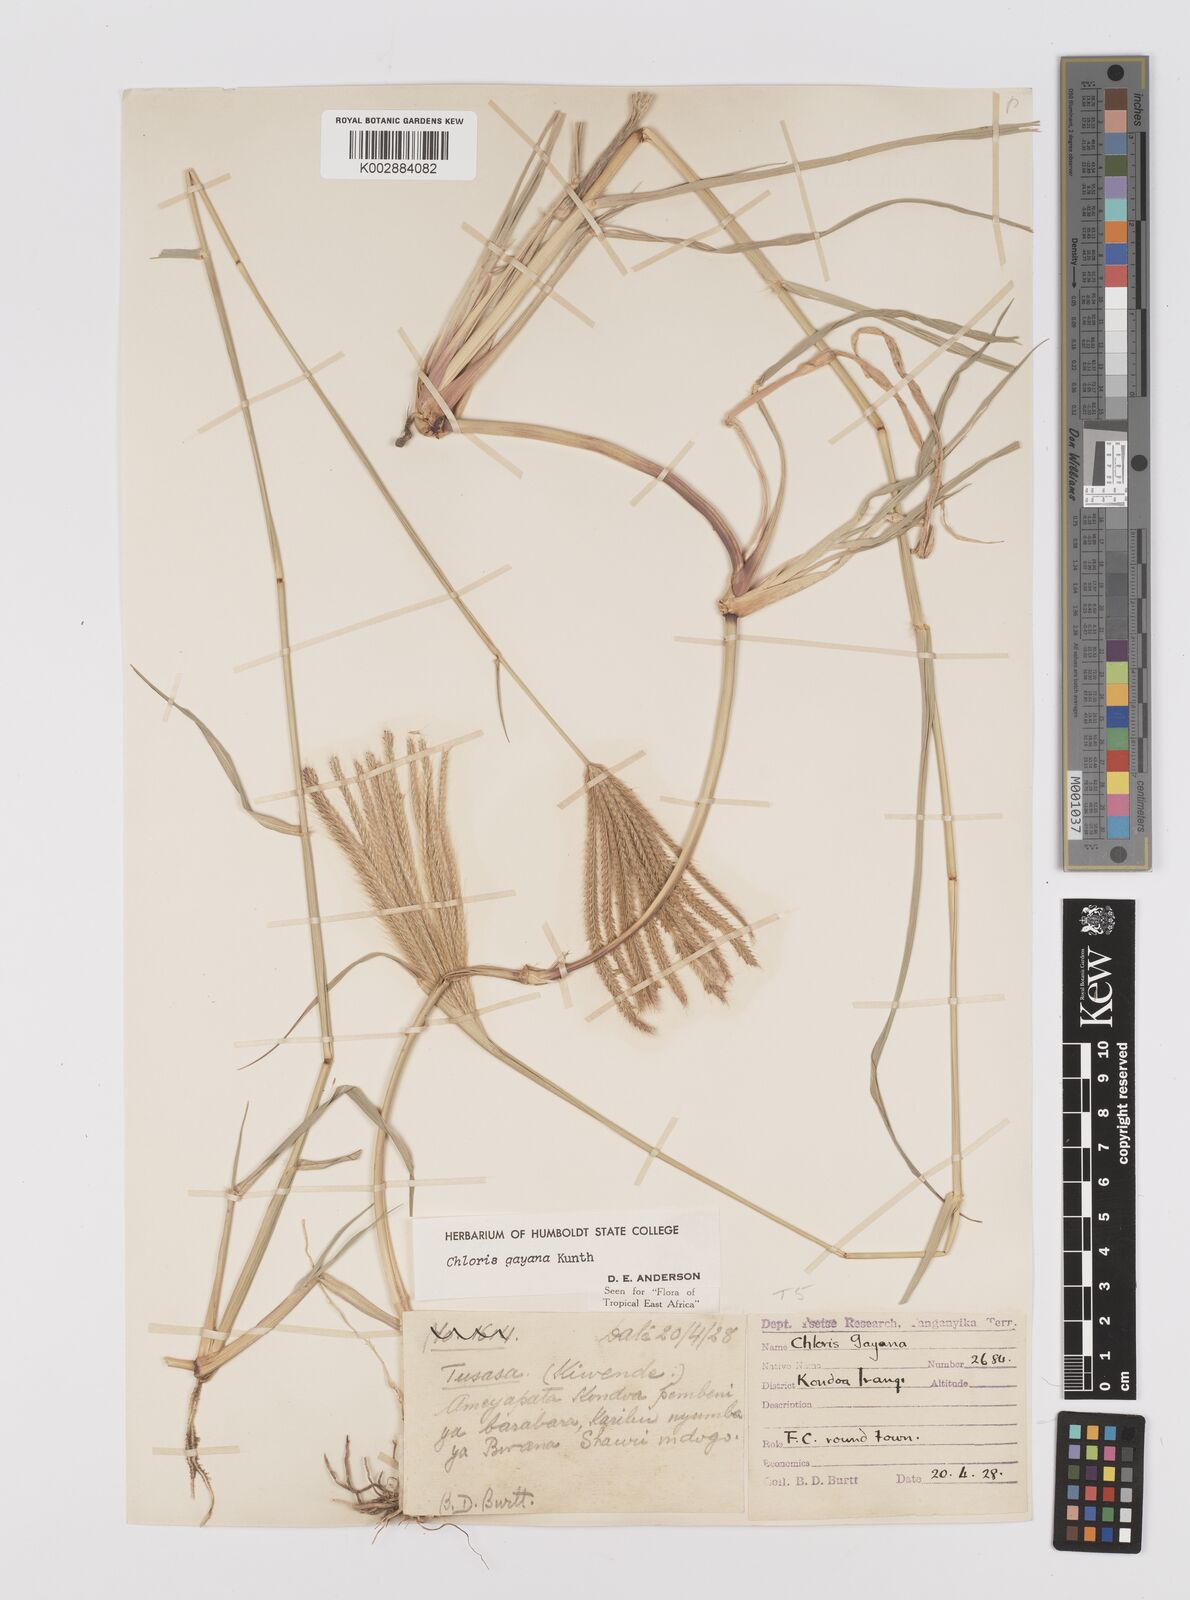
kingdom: Plantae
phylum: Tracheophyta
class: Liliopsida
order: Poales
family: Poaceae
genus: Chloris
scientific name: Chloris gayana
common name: Rhodes grass
